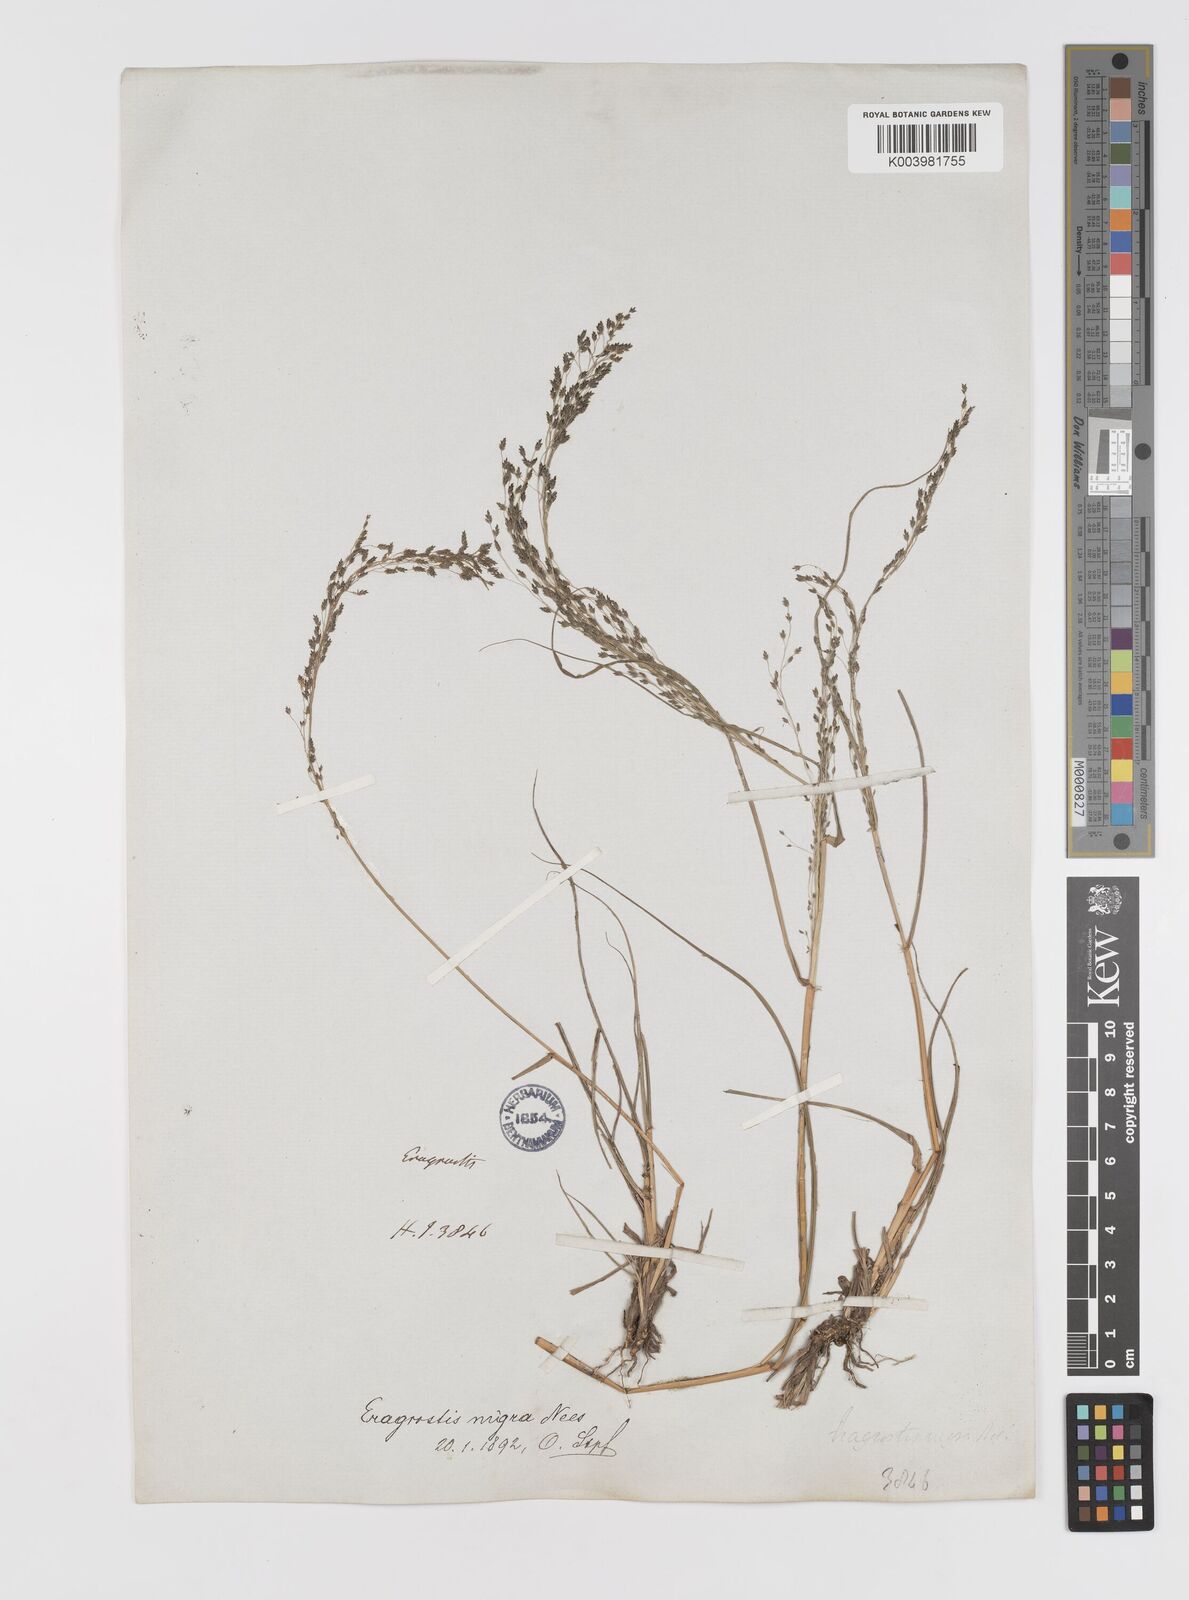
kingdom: Plantae
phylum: Tracheophyta
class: Liliopsida
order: Poales
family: Poaceae
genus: Eragrostis
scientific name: Eragrostis nigra
